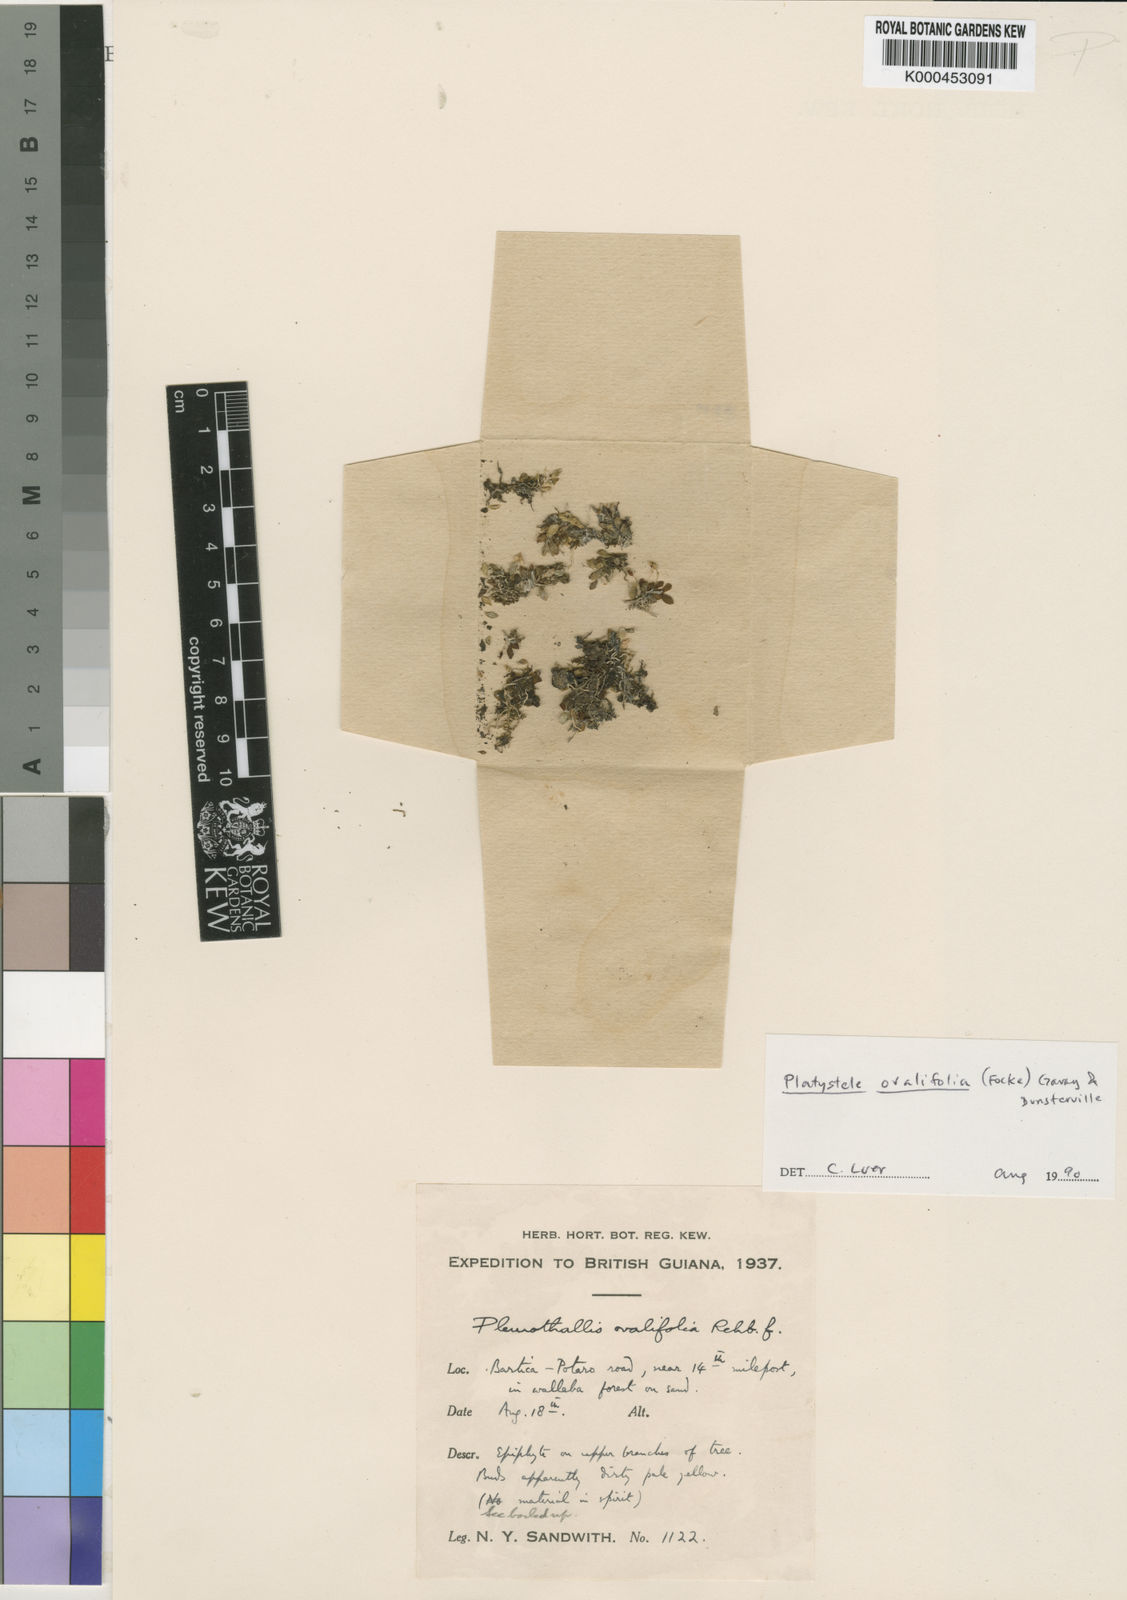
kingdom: Plantae
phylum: Tracheophyta
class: Liliopsida
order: Asparagales
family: Orchidaceae
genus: Platystele
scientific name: Platystele ovalifolia
